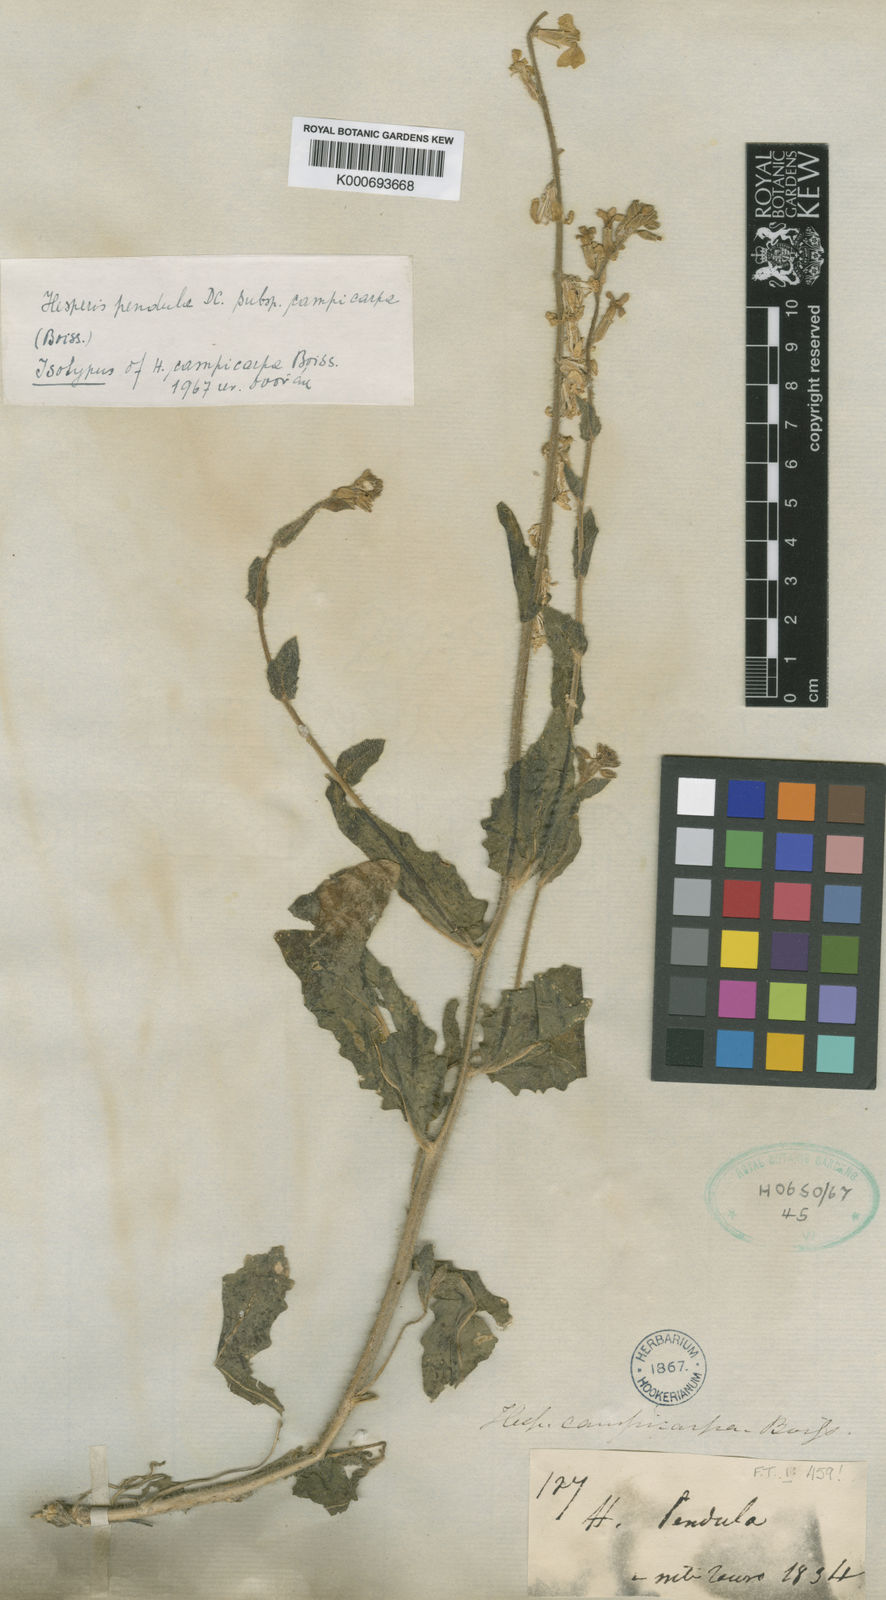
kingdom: Plantae
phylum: Tracheophyta
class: Magnoliopsida
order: Brassicales
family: Brassicaceae
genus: Hesperis
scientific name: Hesperis pendula
